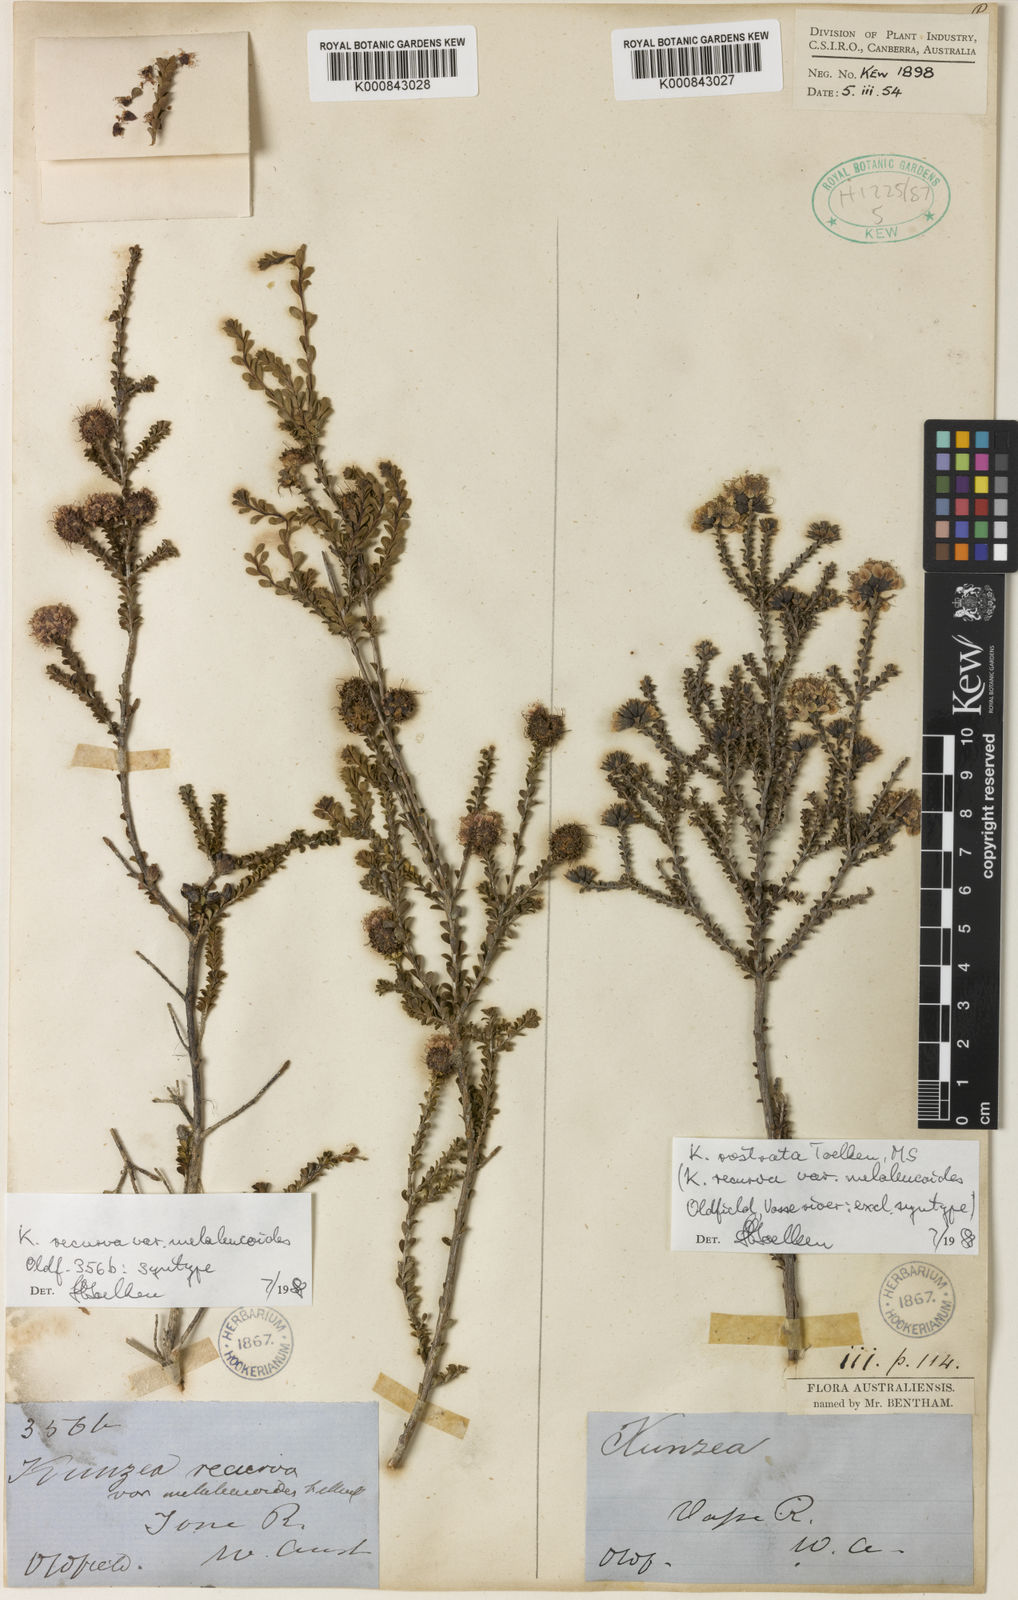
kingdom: Plantae
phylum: Tracheophyta
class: Magnoliopsida
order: Myrtales
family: Myrtaceae
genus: Kunzea
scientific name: Kunzea recurva
